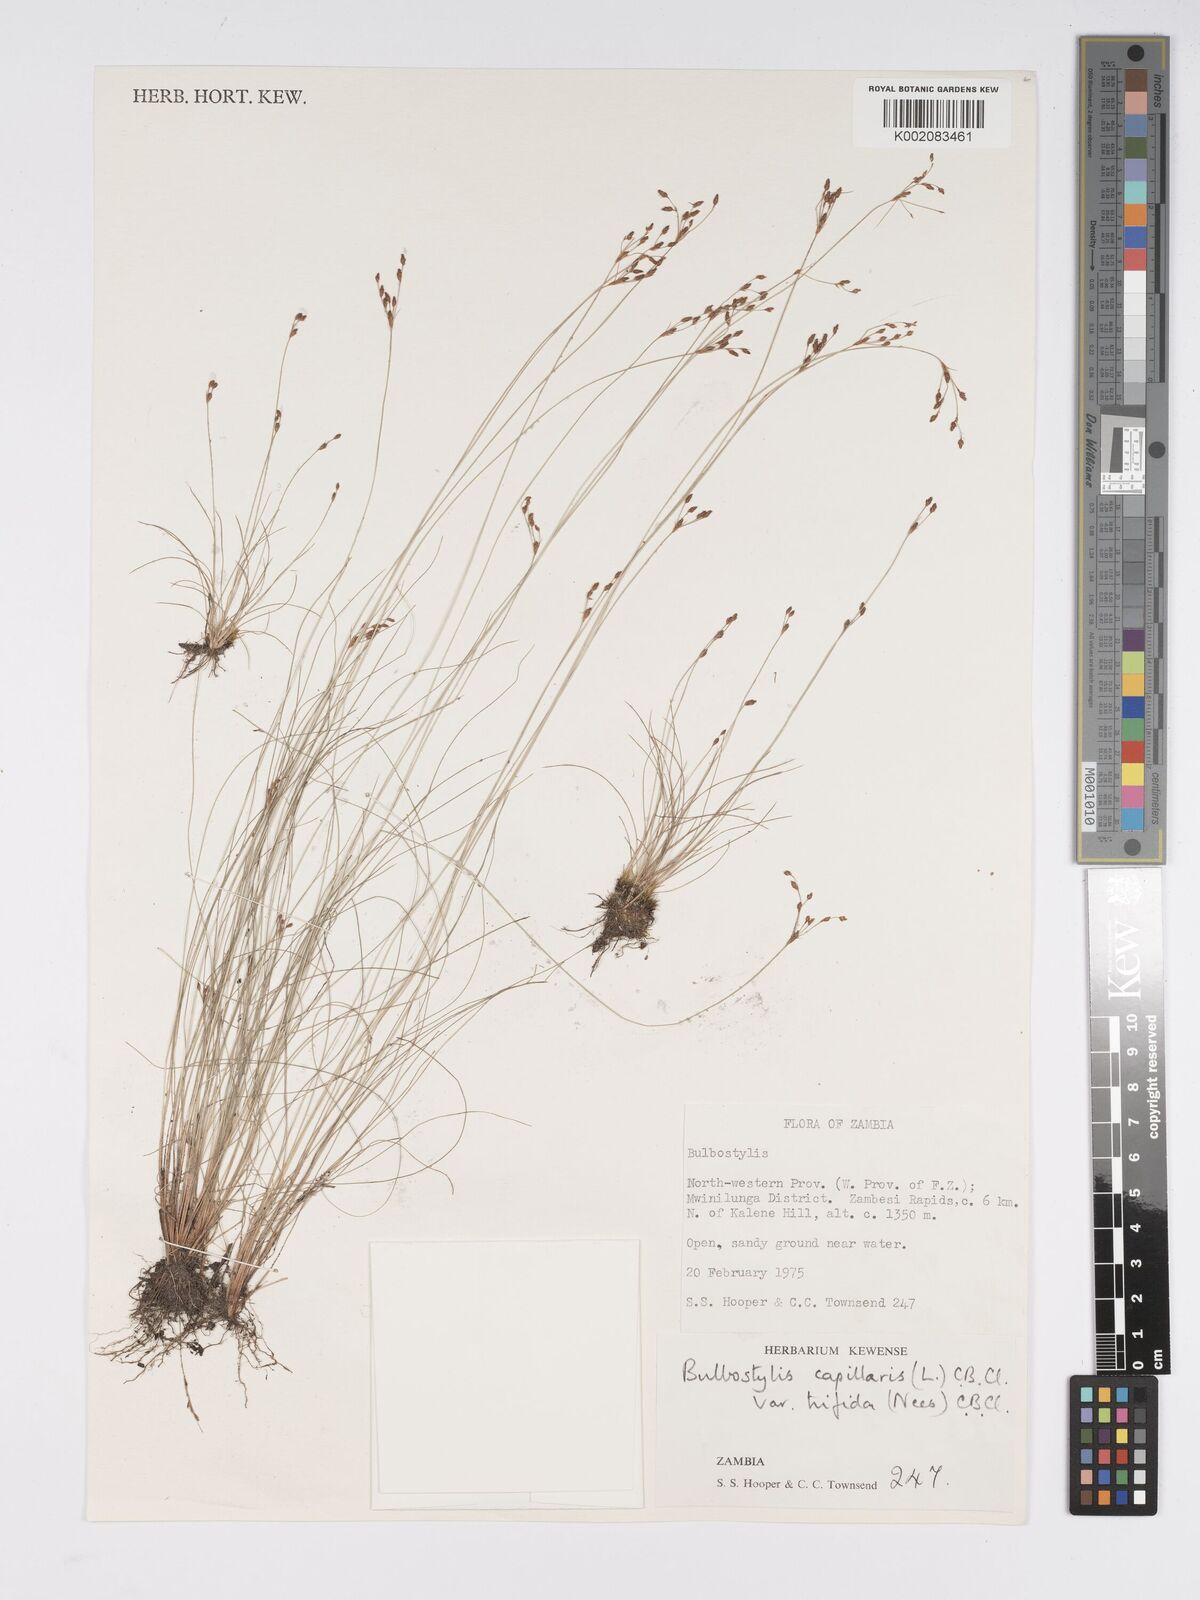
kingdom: Plantae
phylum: Tracheophyta
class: Liliopsida
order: Poales
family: Cyperaceae
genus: Bulbostylis
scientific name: Bulbostylis capillaris
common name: Densetuft hairsedge
